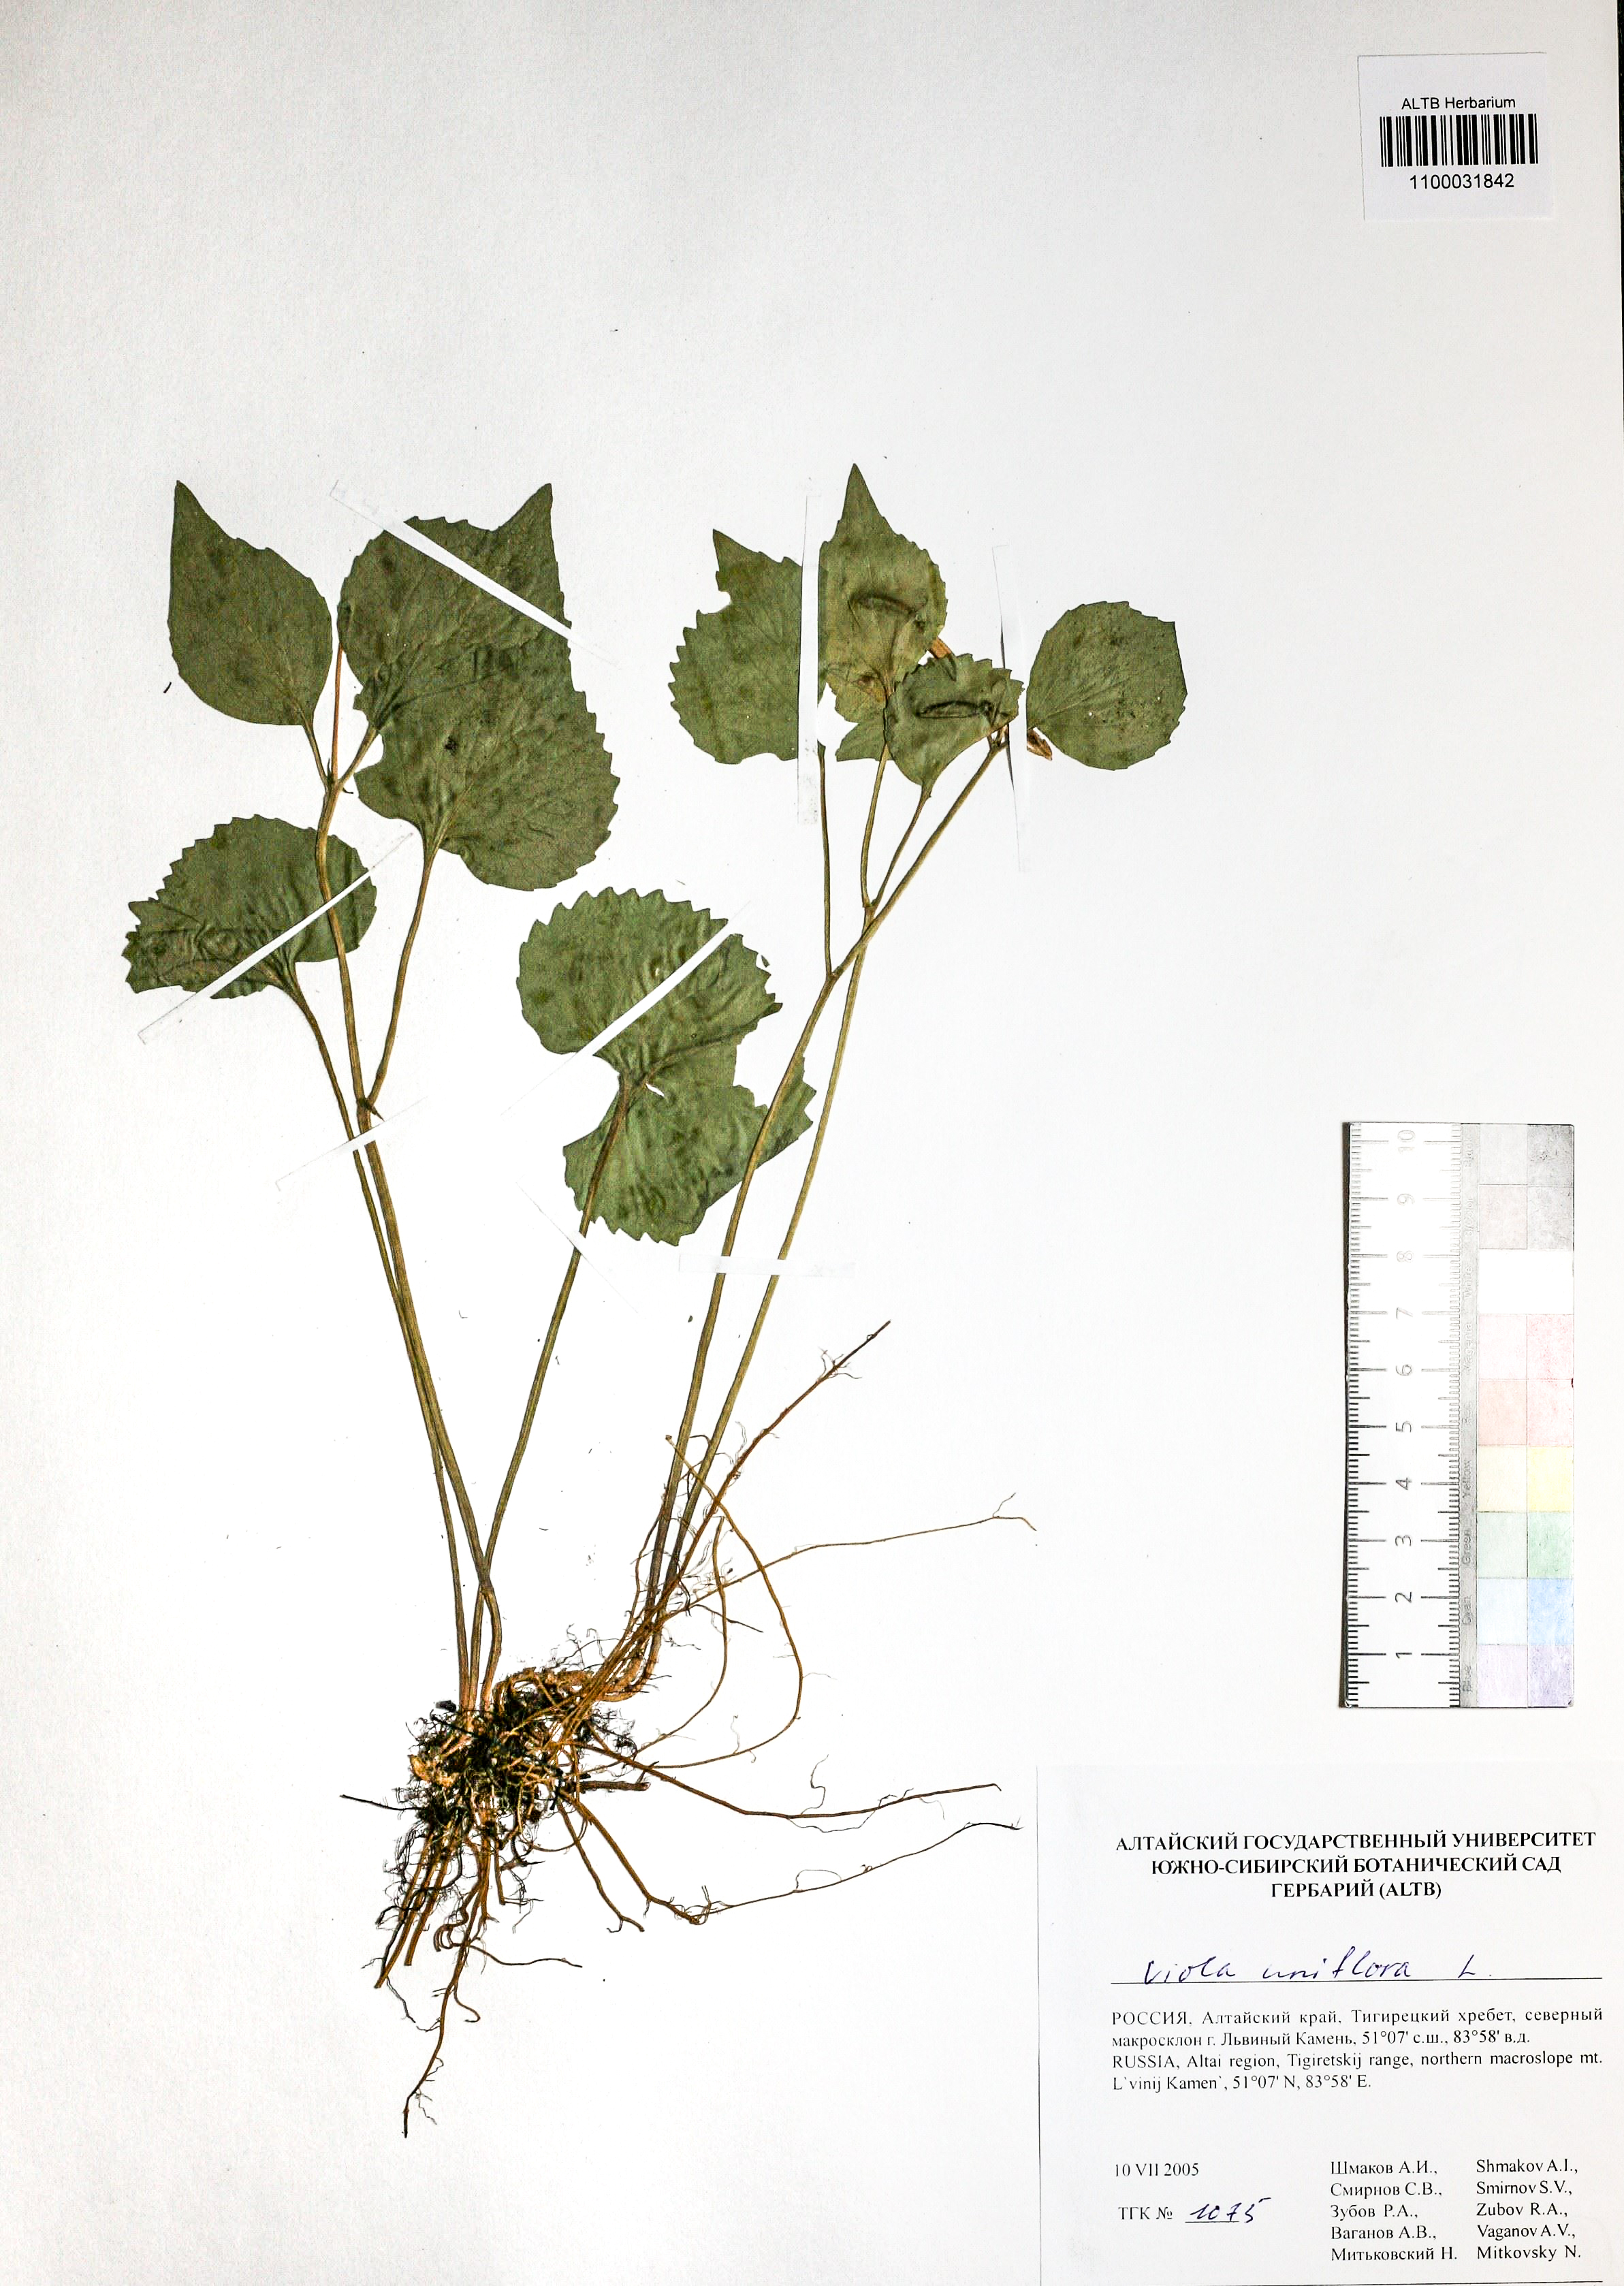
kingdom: Plantae
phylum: Tracheophyta
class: Magnoliopsida
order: Malpighiales
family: Violaceae
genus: Viola
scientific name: Viola uniflora
